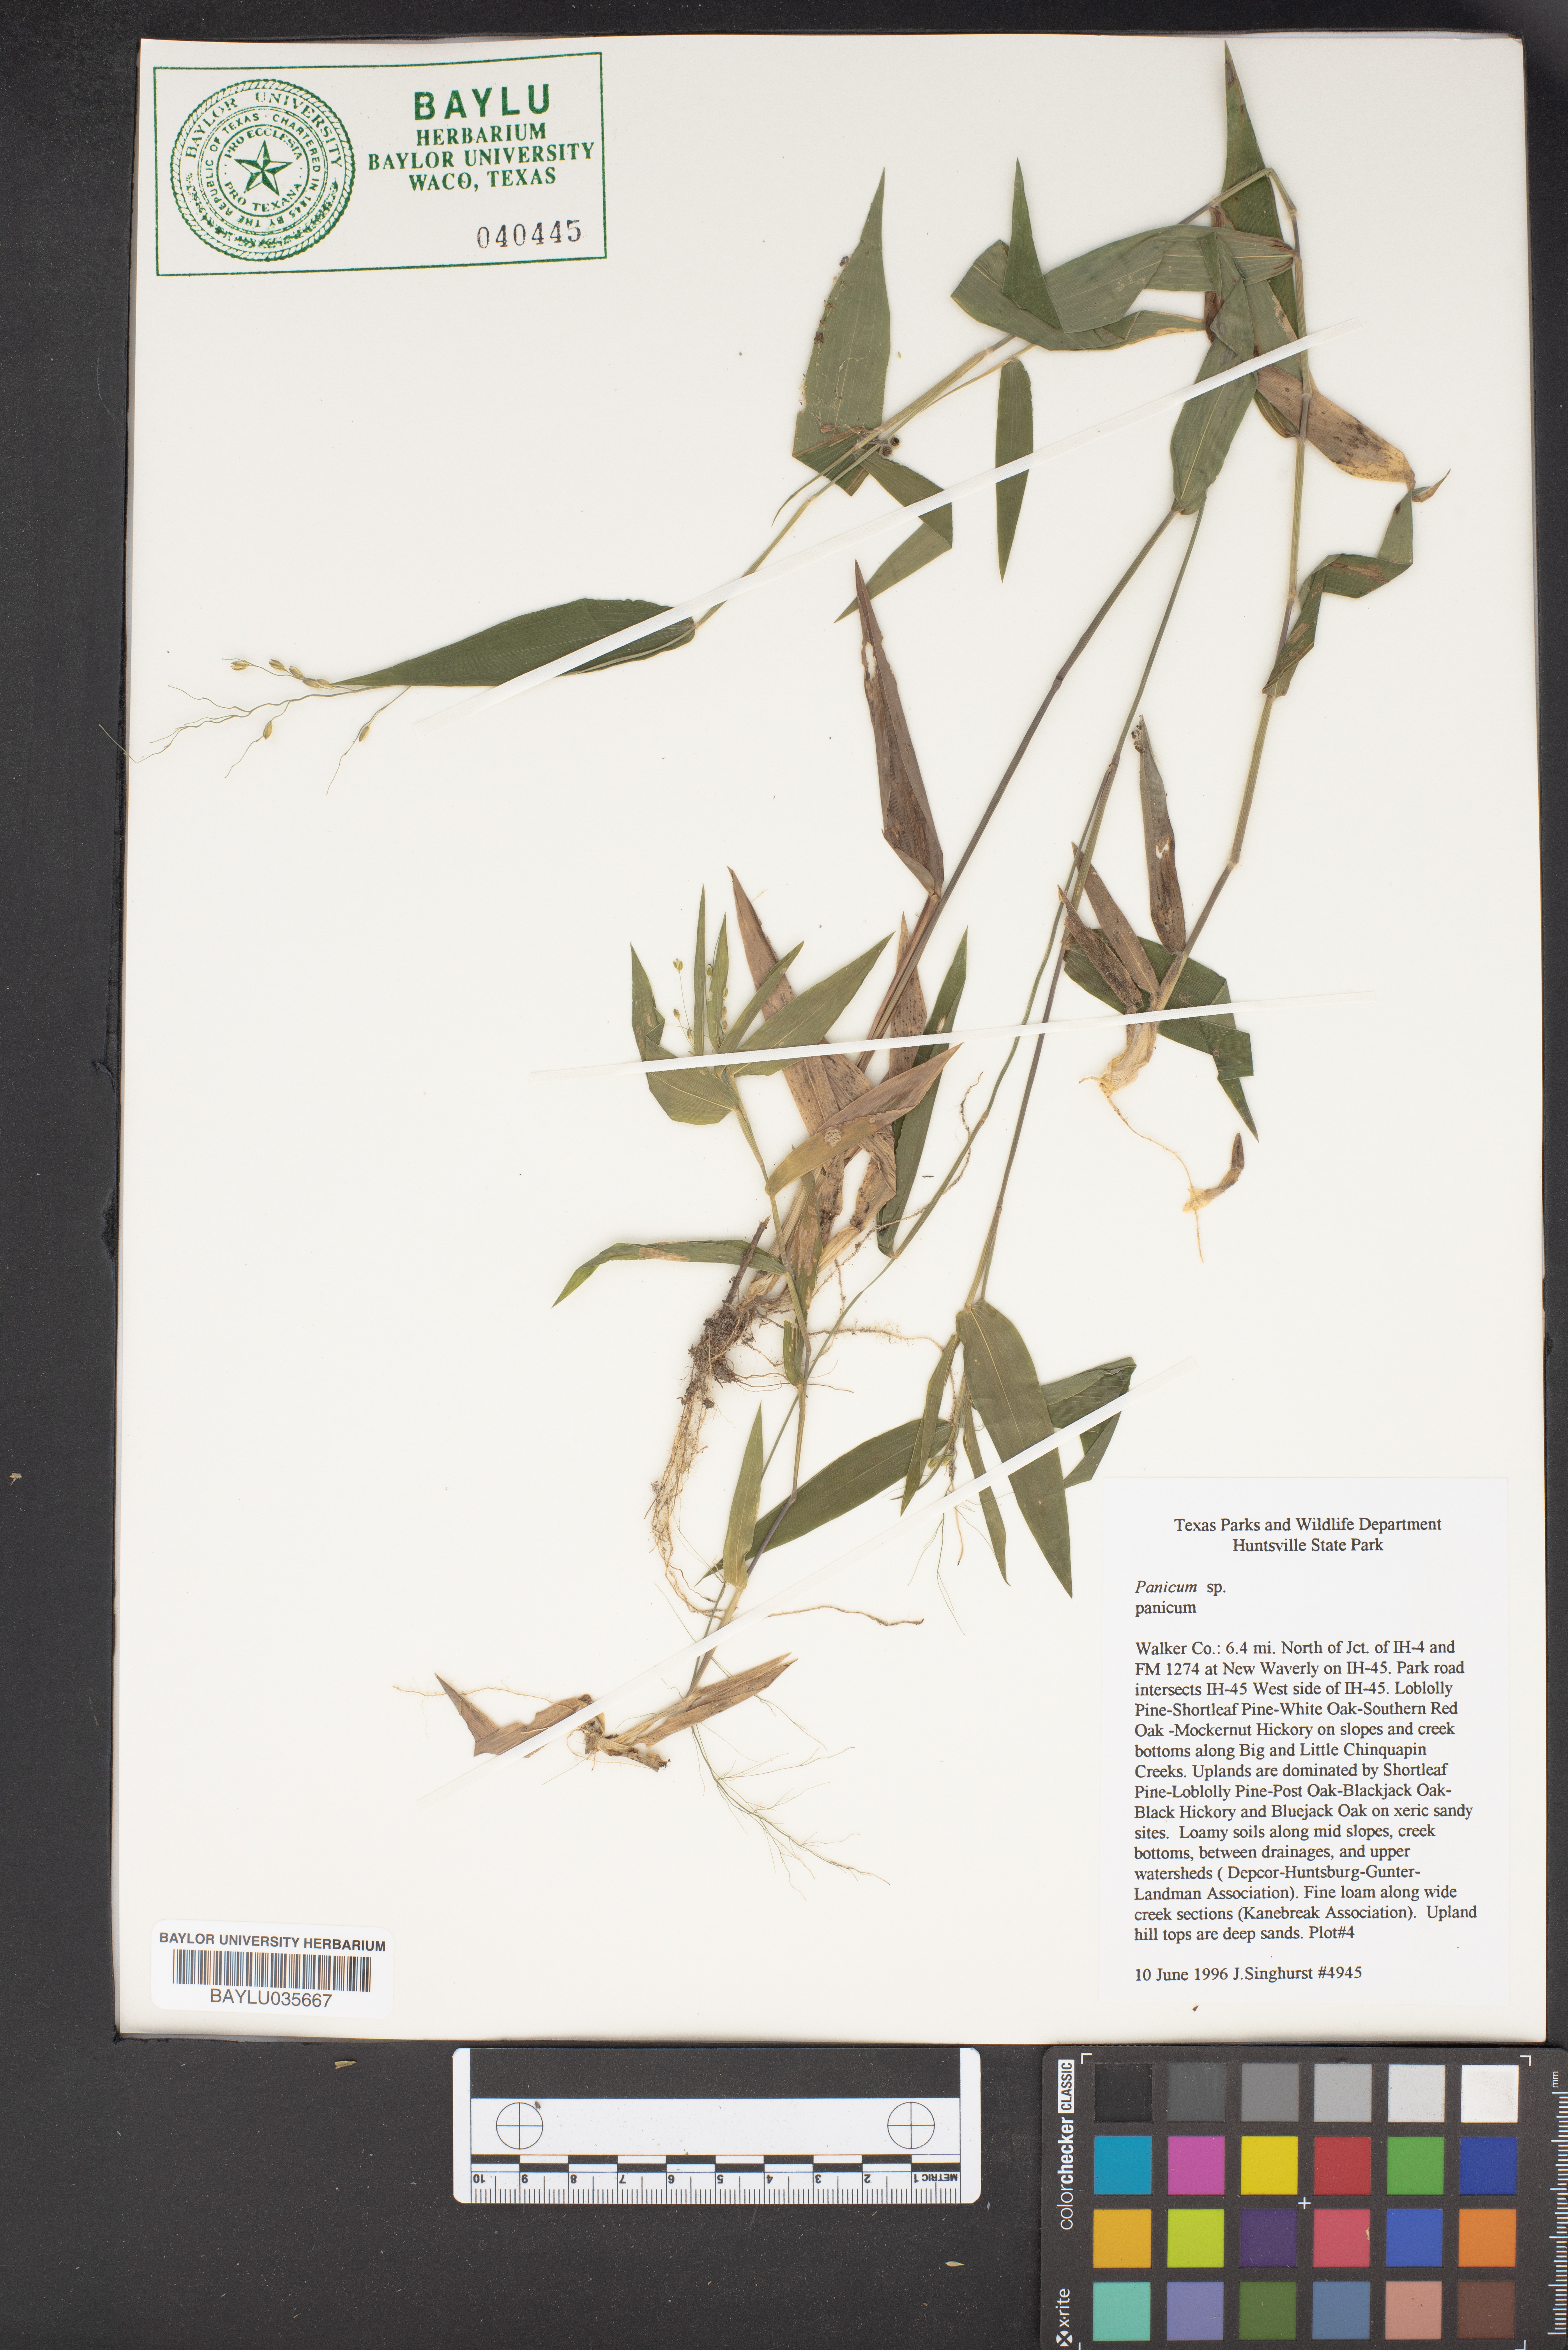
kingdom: Plantae
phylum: Tracheophyta
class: Liliopsida
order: Poales
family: Poaceae
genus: Panicum
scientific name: Panicum
